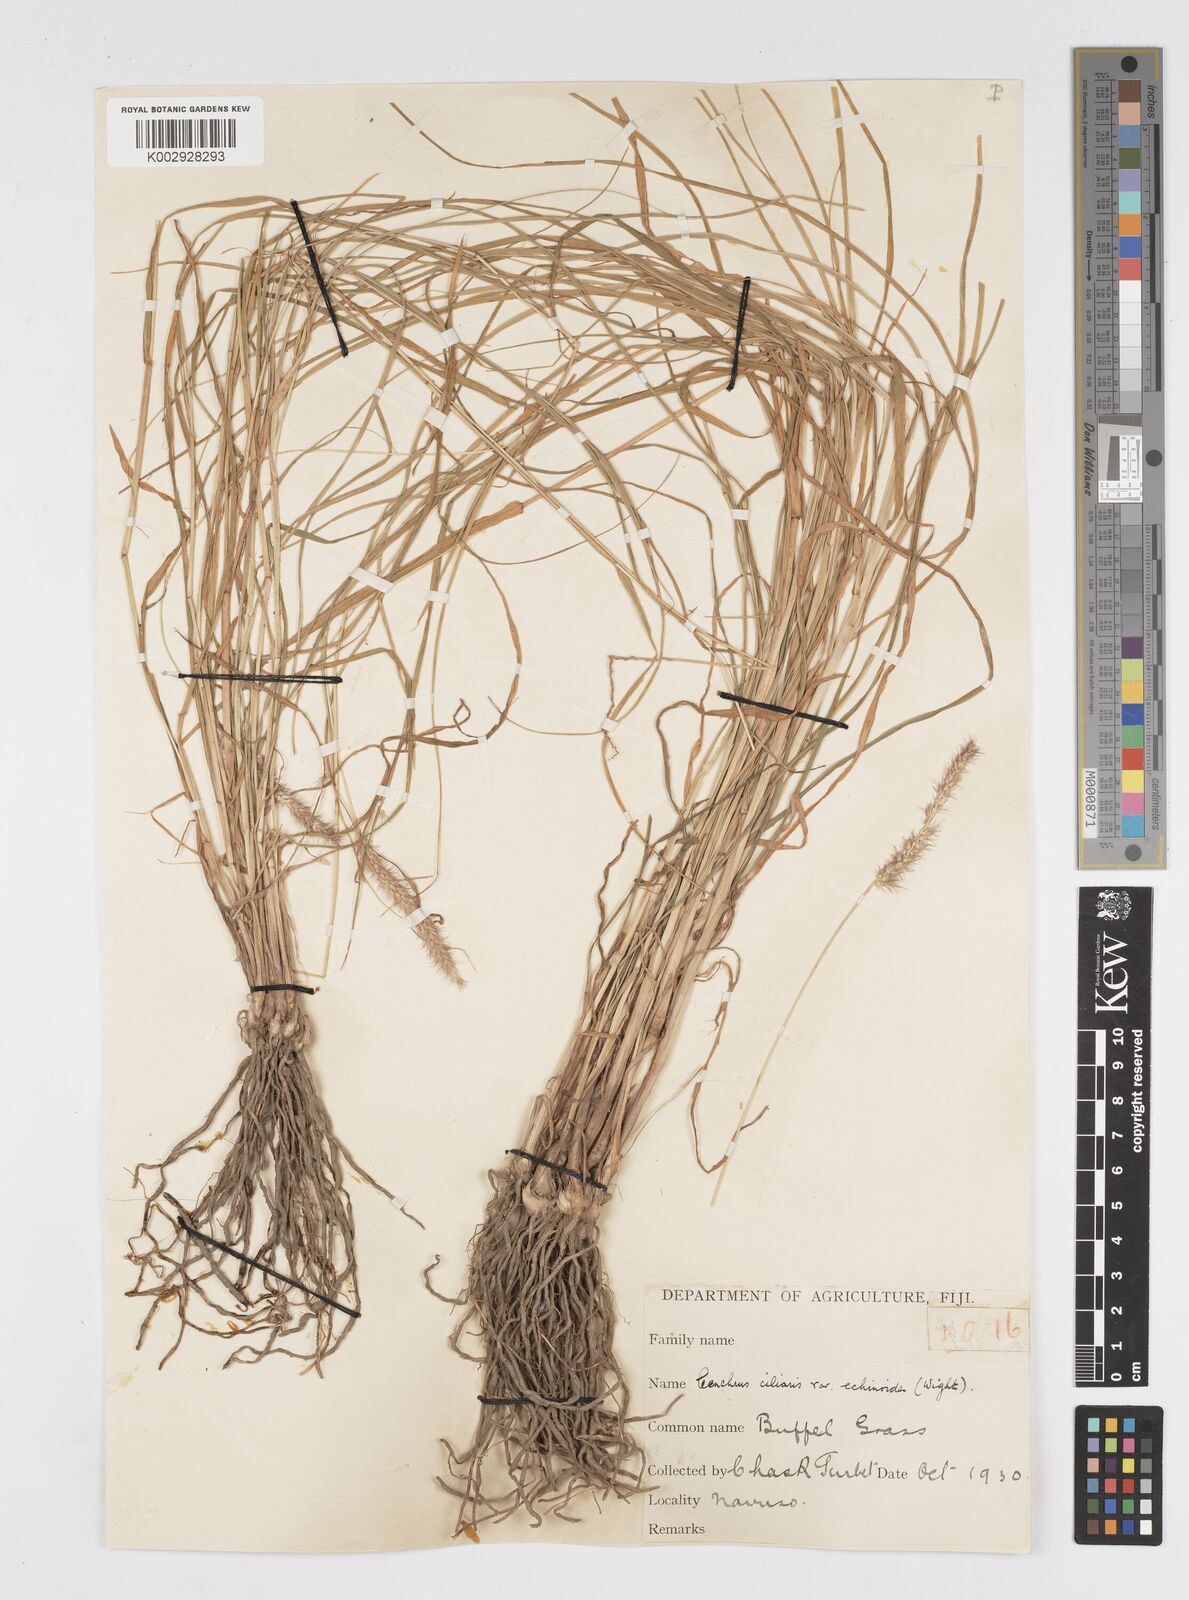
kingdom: Plantae
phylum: Tracheophyta
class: Liliopsida
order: Poales
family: Poaceae
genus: Cenchrus
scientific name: Cenchrus ciliaris
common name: Buffelgrass
